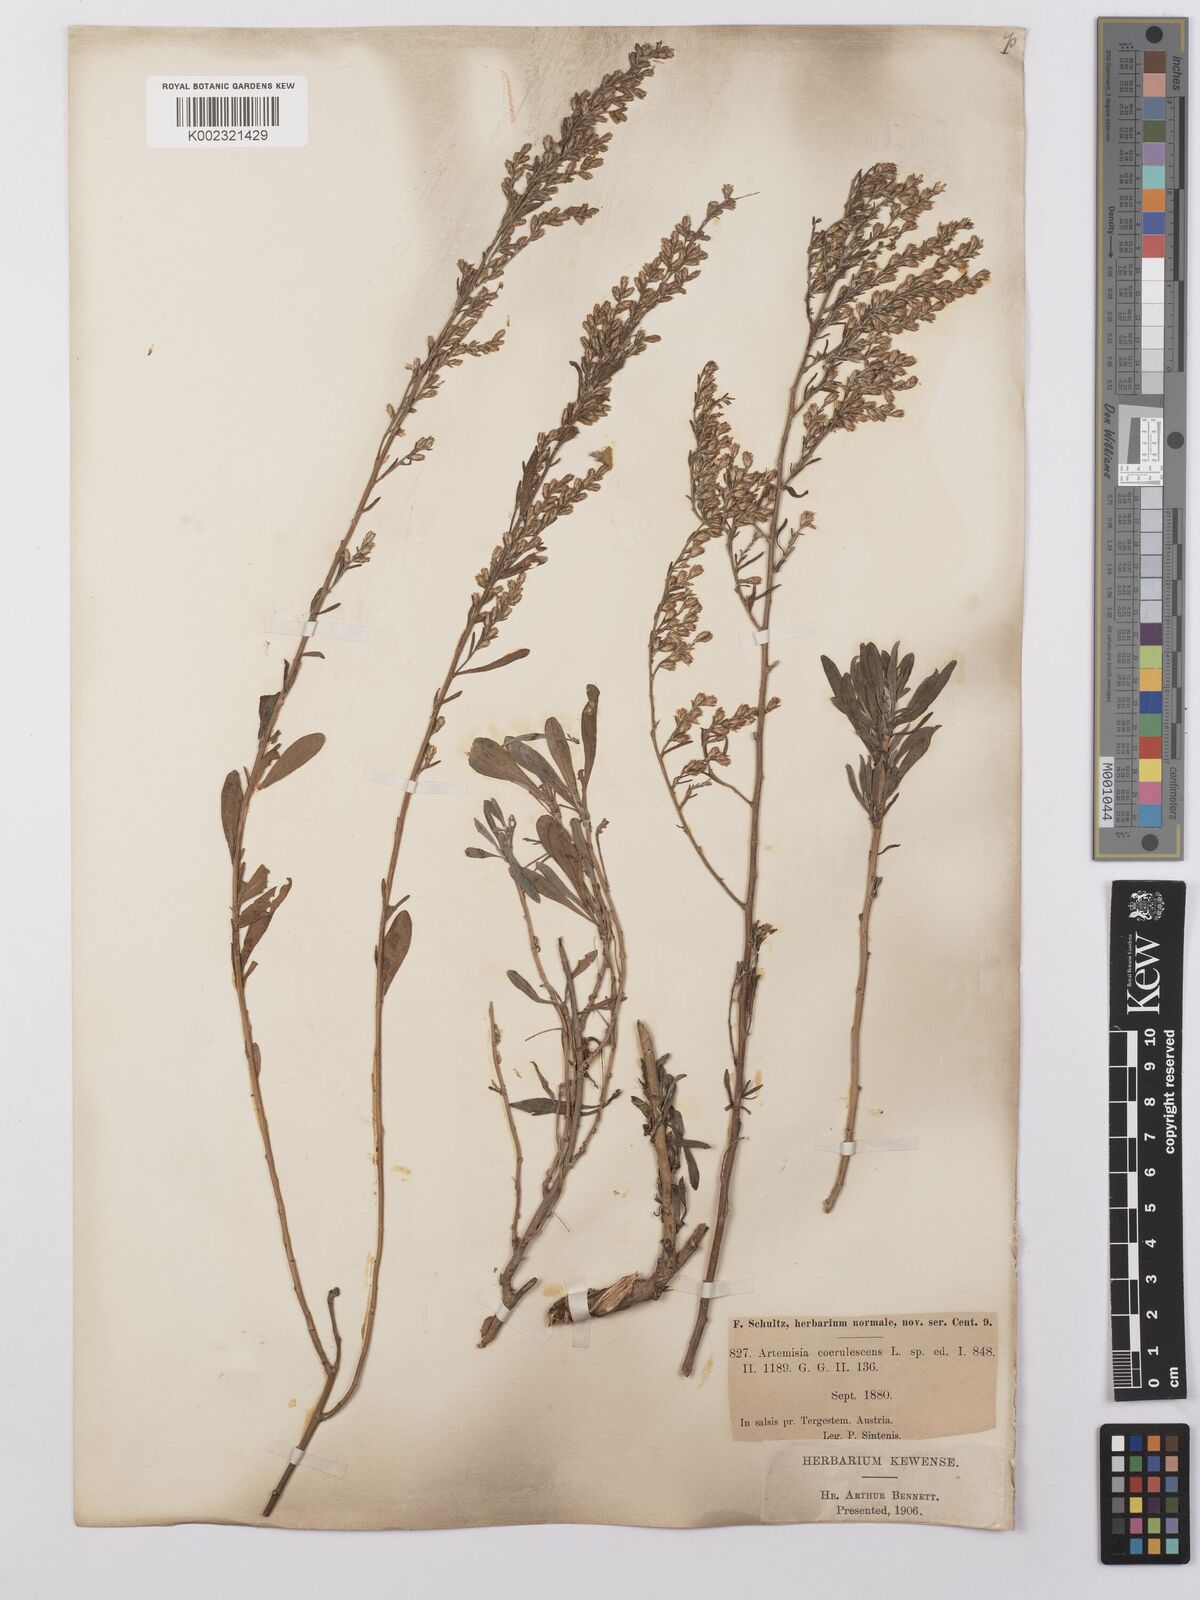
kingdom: Plantae
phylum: Tracheophyta
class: Magnoliopsida
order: Asterales
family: Asteraceae
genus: Artemisia
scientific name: Artemisia caerulescens
